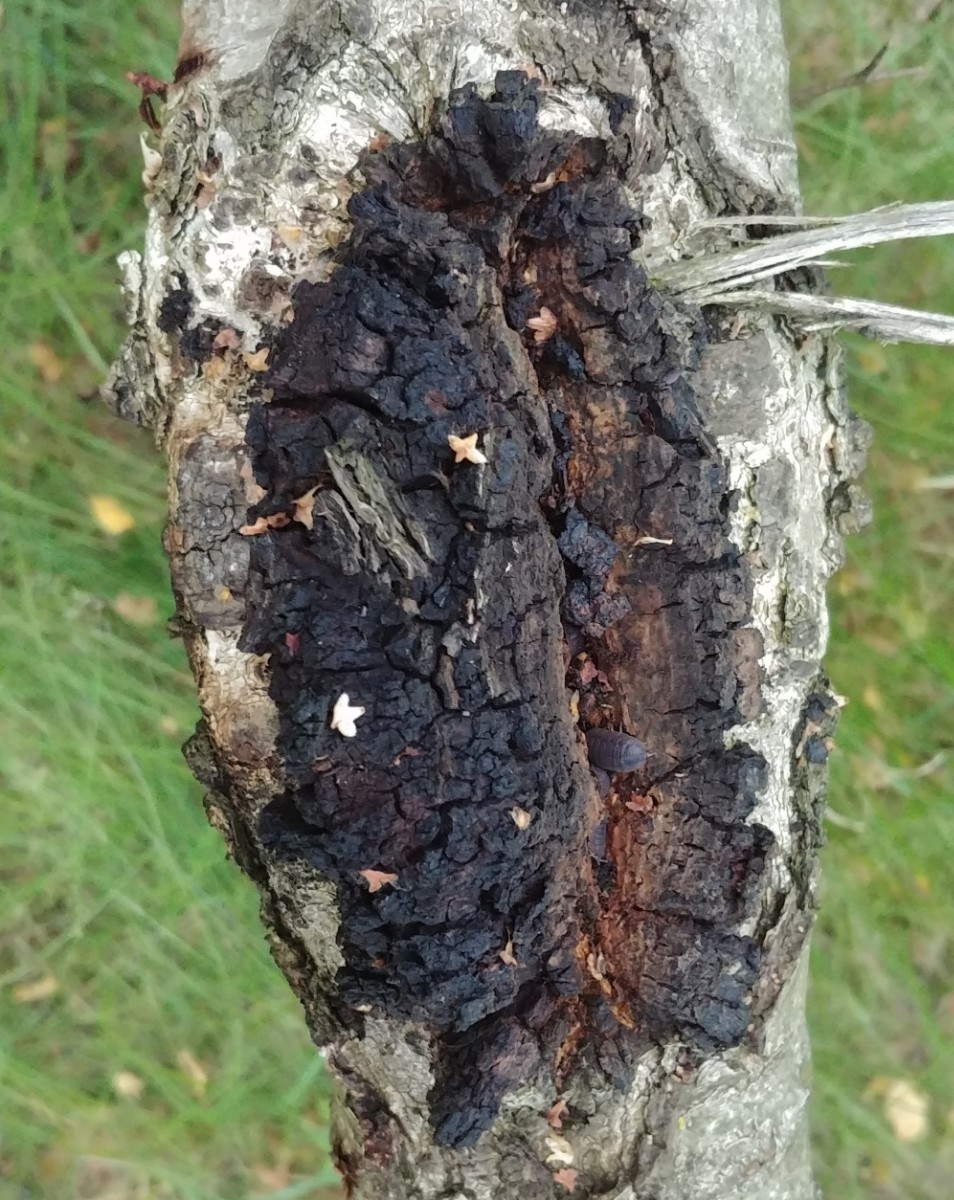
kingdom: Fungi
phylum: Basidiomycota
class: Agaricomycetes
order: Hymenochaetales
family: Hymenochaetaceae
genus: Inonotus
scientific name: Inonotus obliquus
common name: birke-spejlporesvamp
